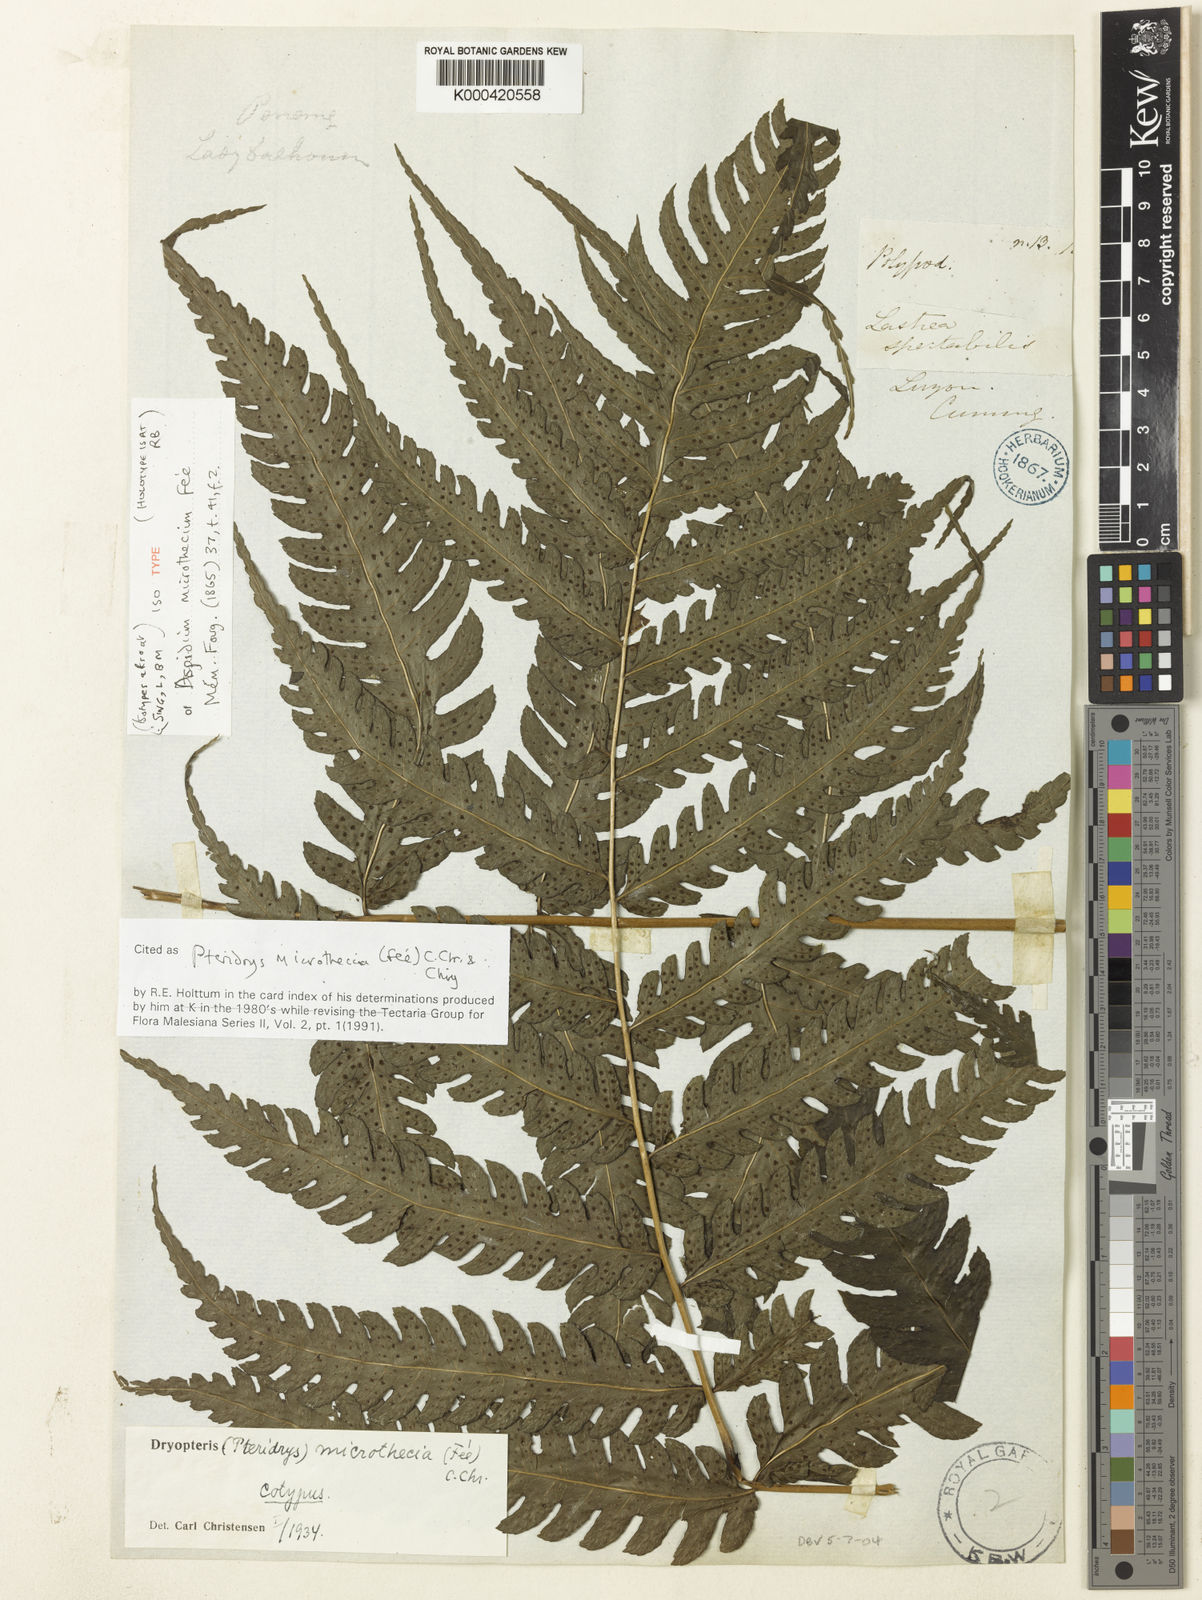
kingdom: Plantae
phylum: Tracheophyta
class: Polypodiopsida
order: Polypodiales
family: Tectariaceae
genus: Pteridrys
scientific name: Pteridrys
